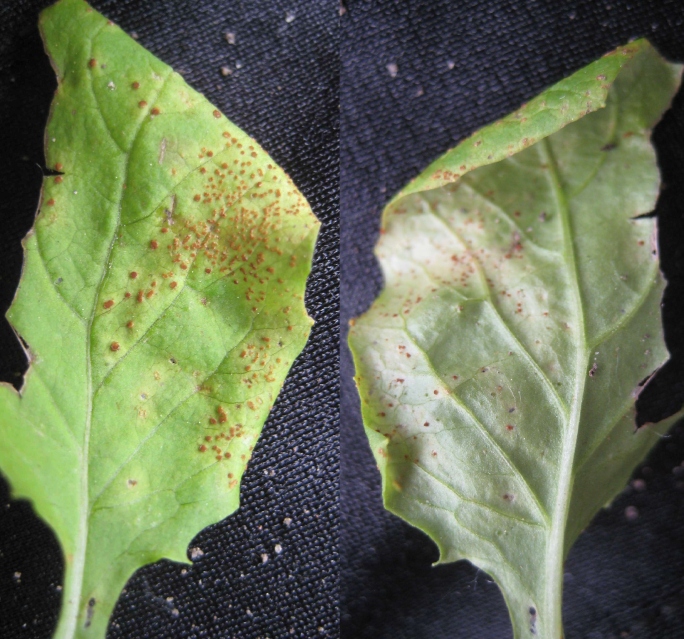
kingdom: Fungi
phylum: Basidiomycota
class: Pucciniomycetes
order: Pucciniales
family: Pucciniaceae
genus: Puccinia
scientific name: Puccinia lapsanae
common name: Nipplewort rust
